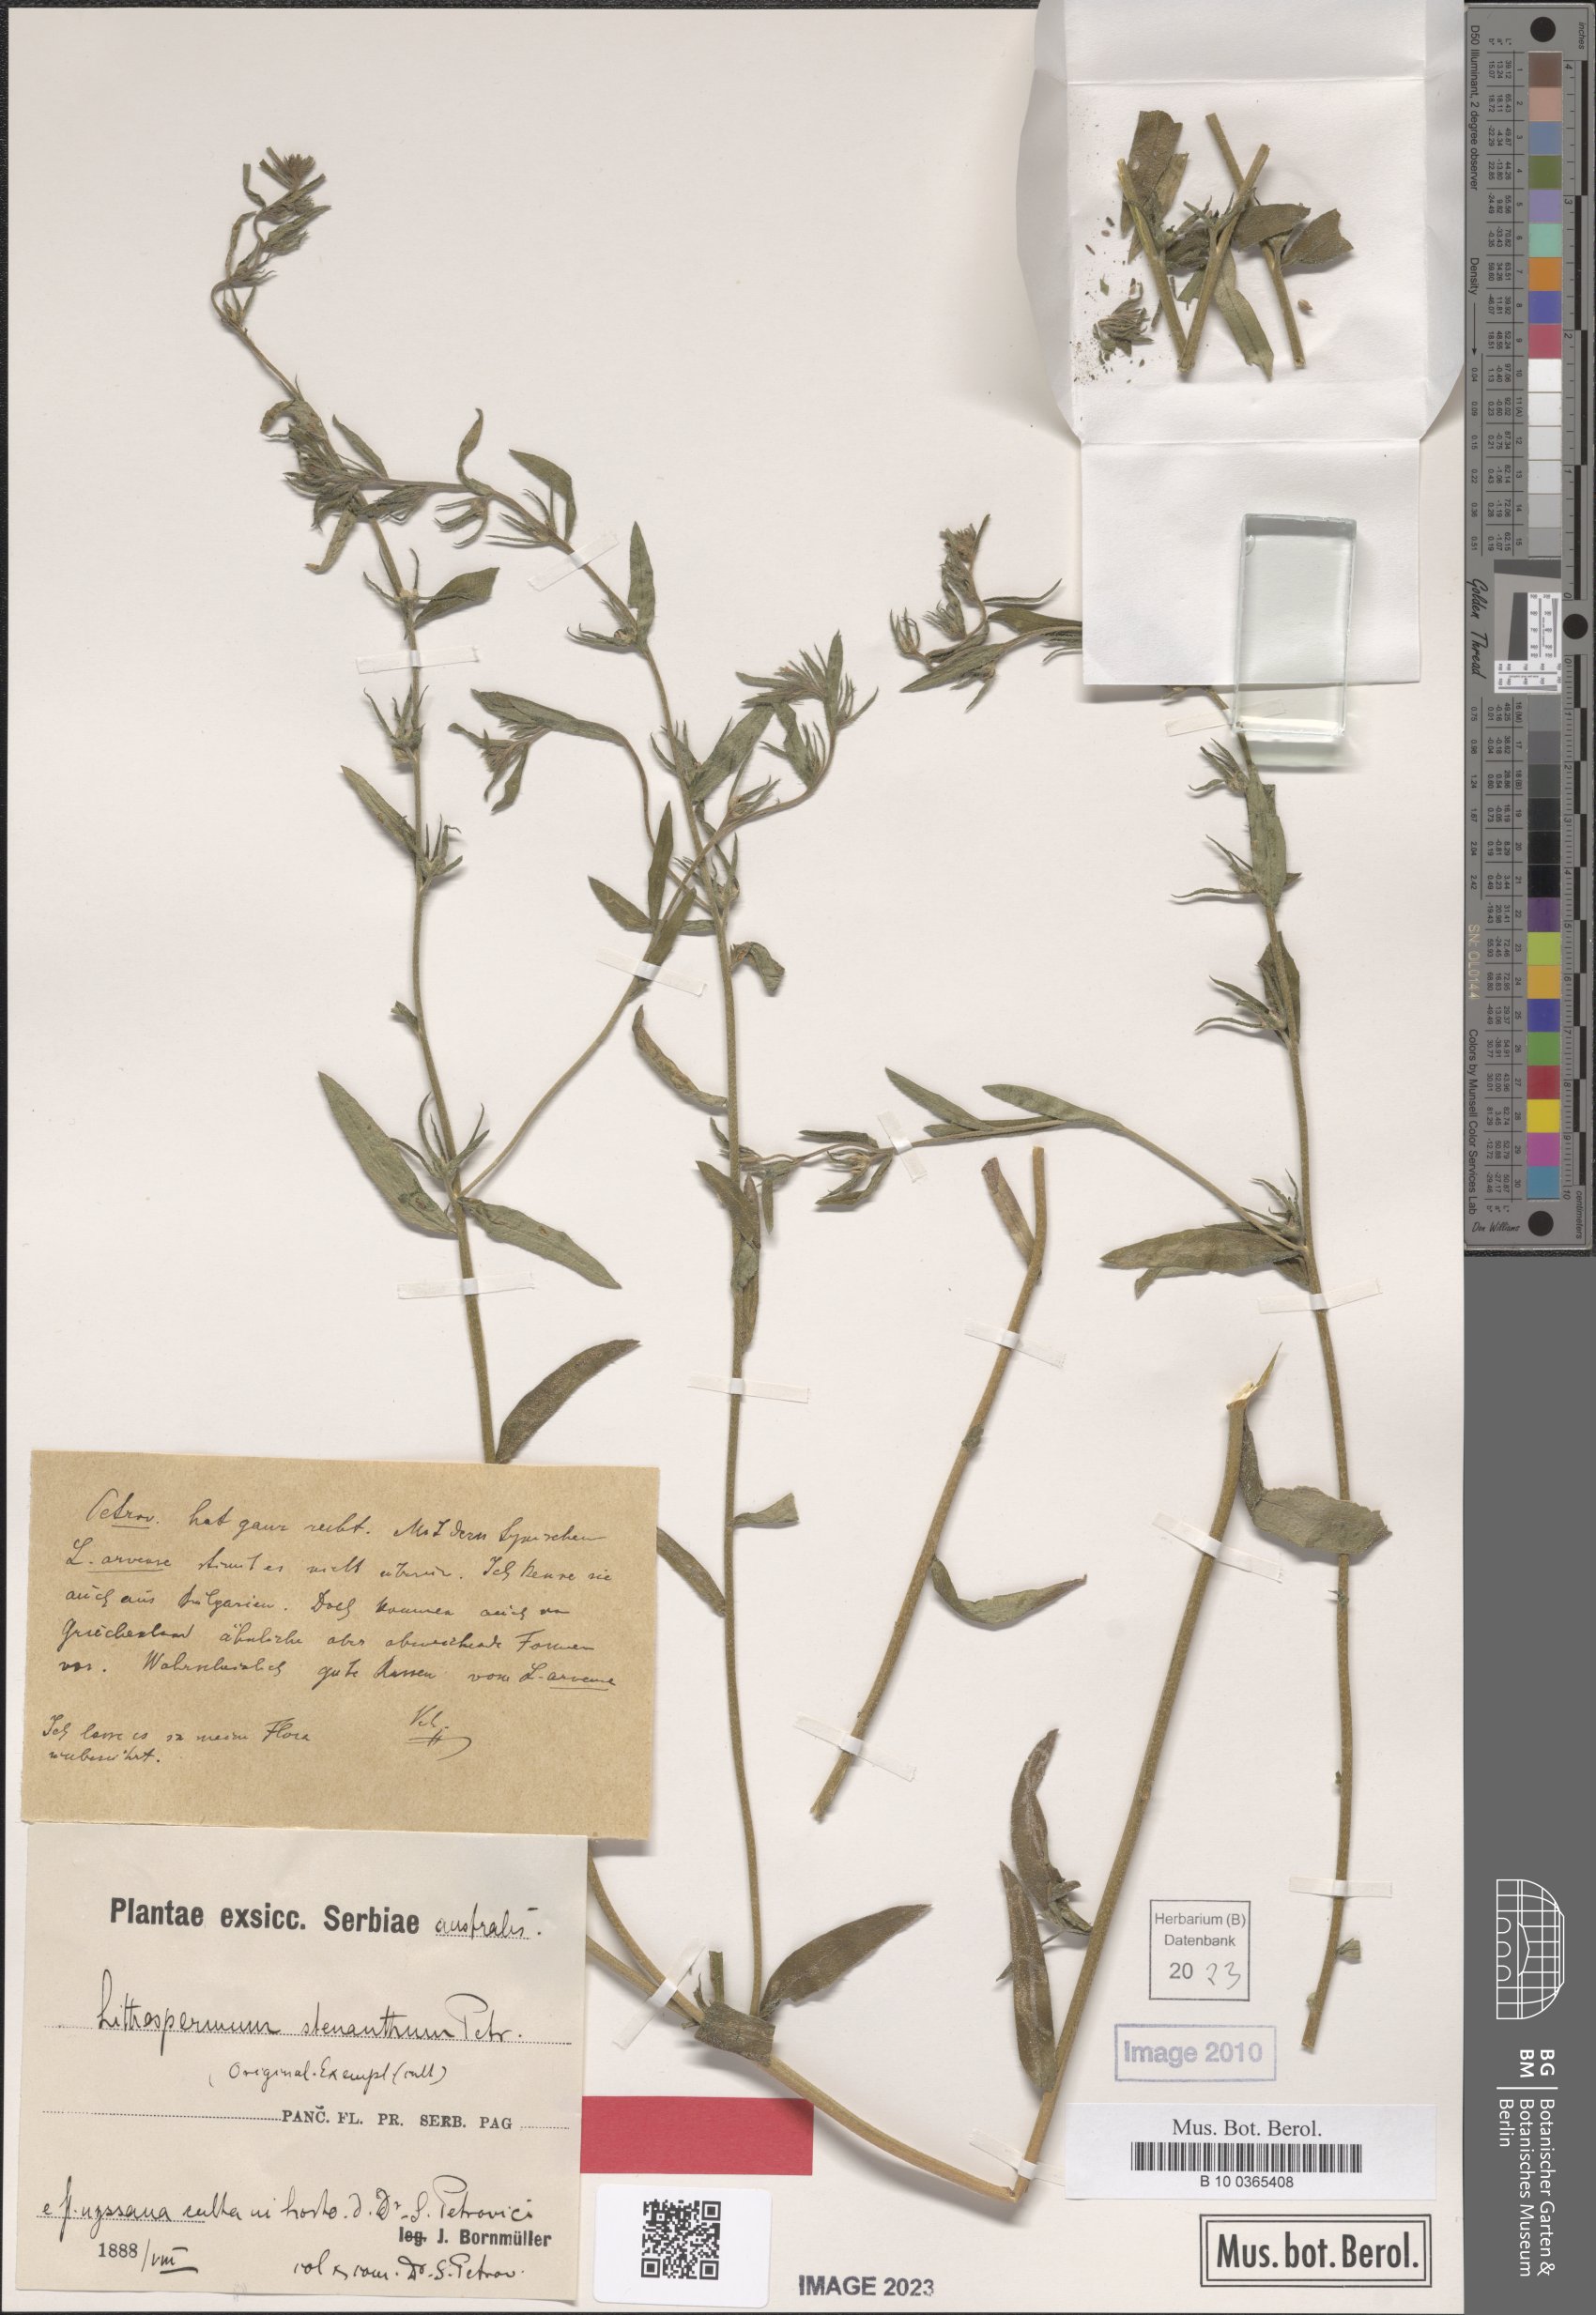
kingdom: Plantae
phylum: Tracheophyta
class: Magnoliopsida
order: Boraginales
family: Boraginaceae
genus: Lithospermum
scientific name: Lithospermum
